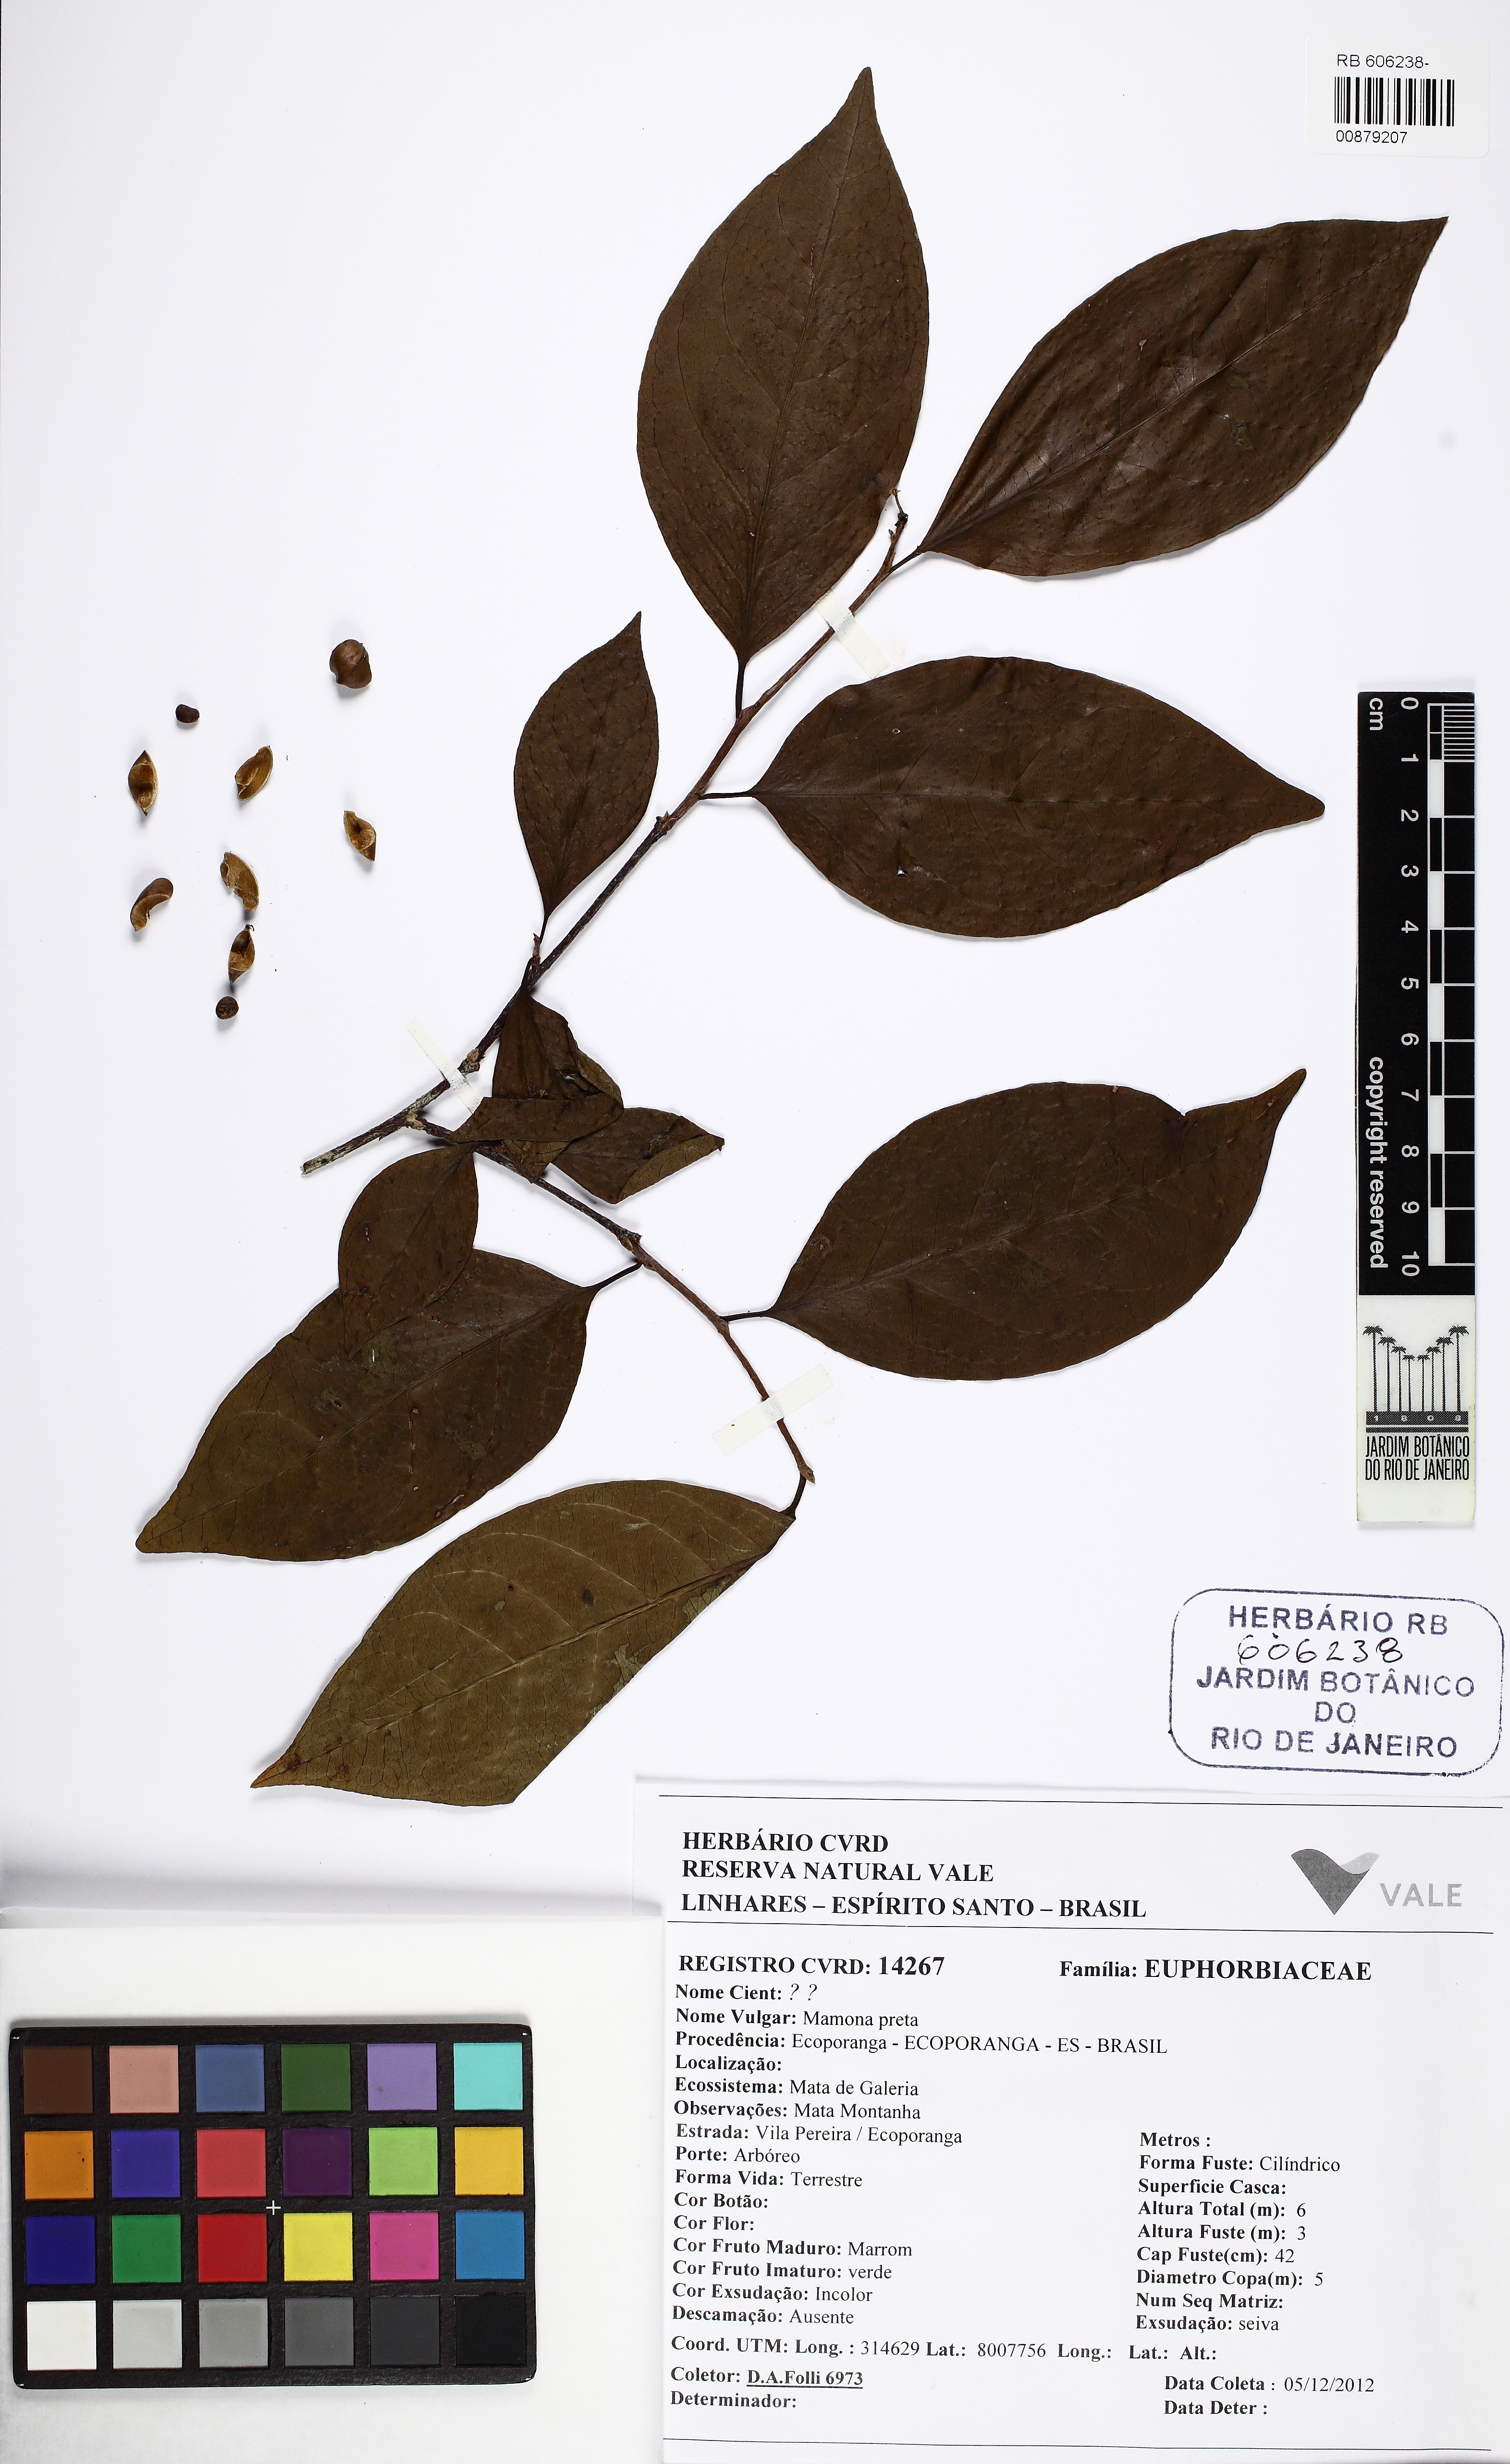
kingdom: Plantae
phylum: Tracheophyta
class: Magnoliopsida
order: Malpighiales
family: Euphorbiaceae
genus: Sebastiania
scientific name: Sebastiania
